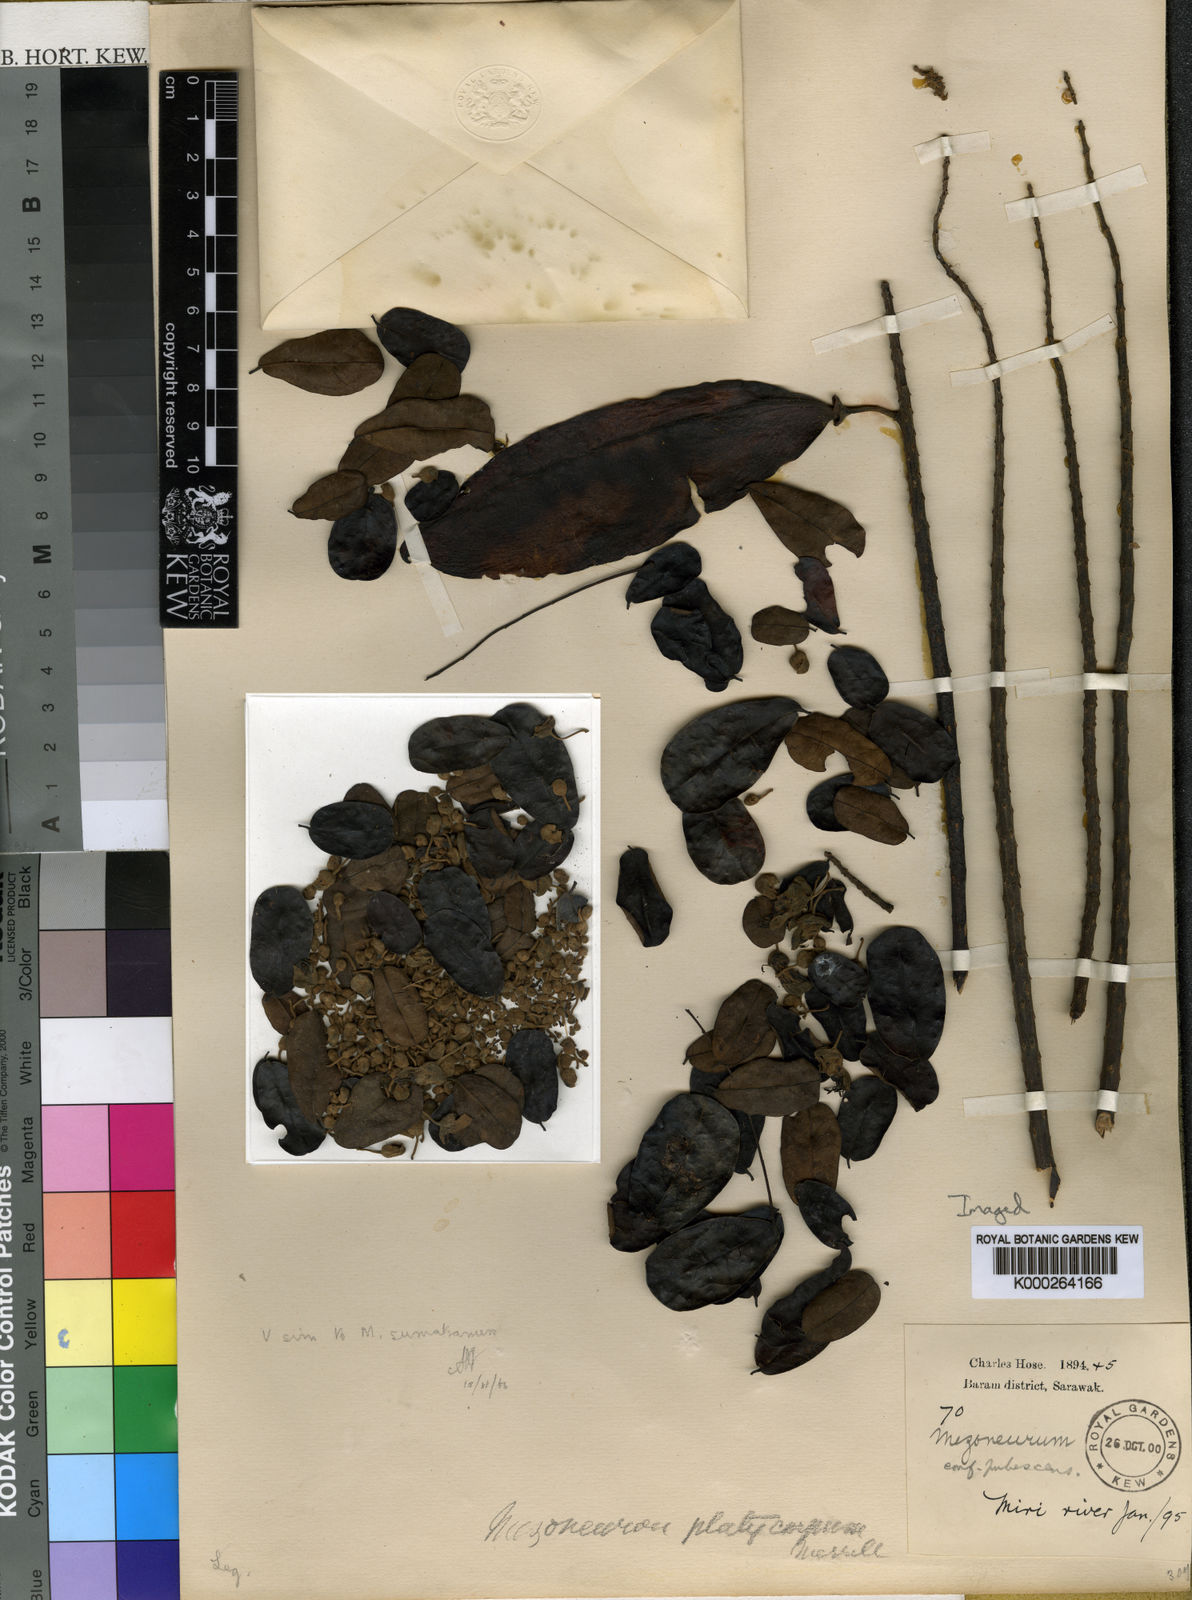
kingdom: Plantae
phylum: Tracheophyta
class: Magnoliopsida
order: Fabales
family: Fabaceae
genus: Mezoneuron
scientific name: Mezoneuron latisiliquum
